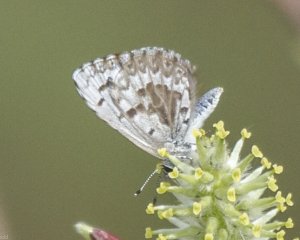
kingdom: Animalia
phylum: Arthropoda
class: Insecta
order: Lepidoptera
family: Lycaenidae
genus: Celastrina
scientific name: Celastrina lucia
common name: Northern Spring Azure
